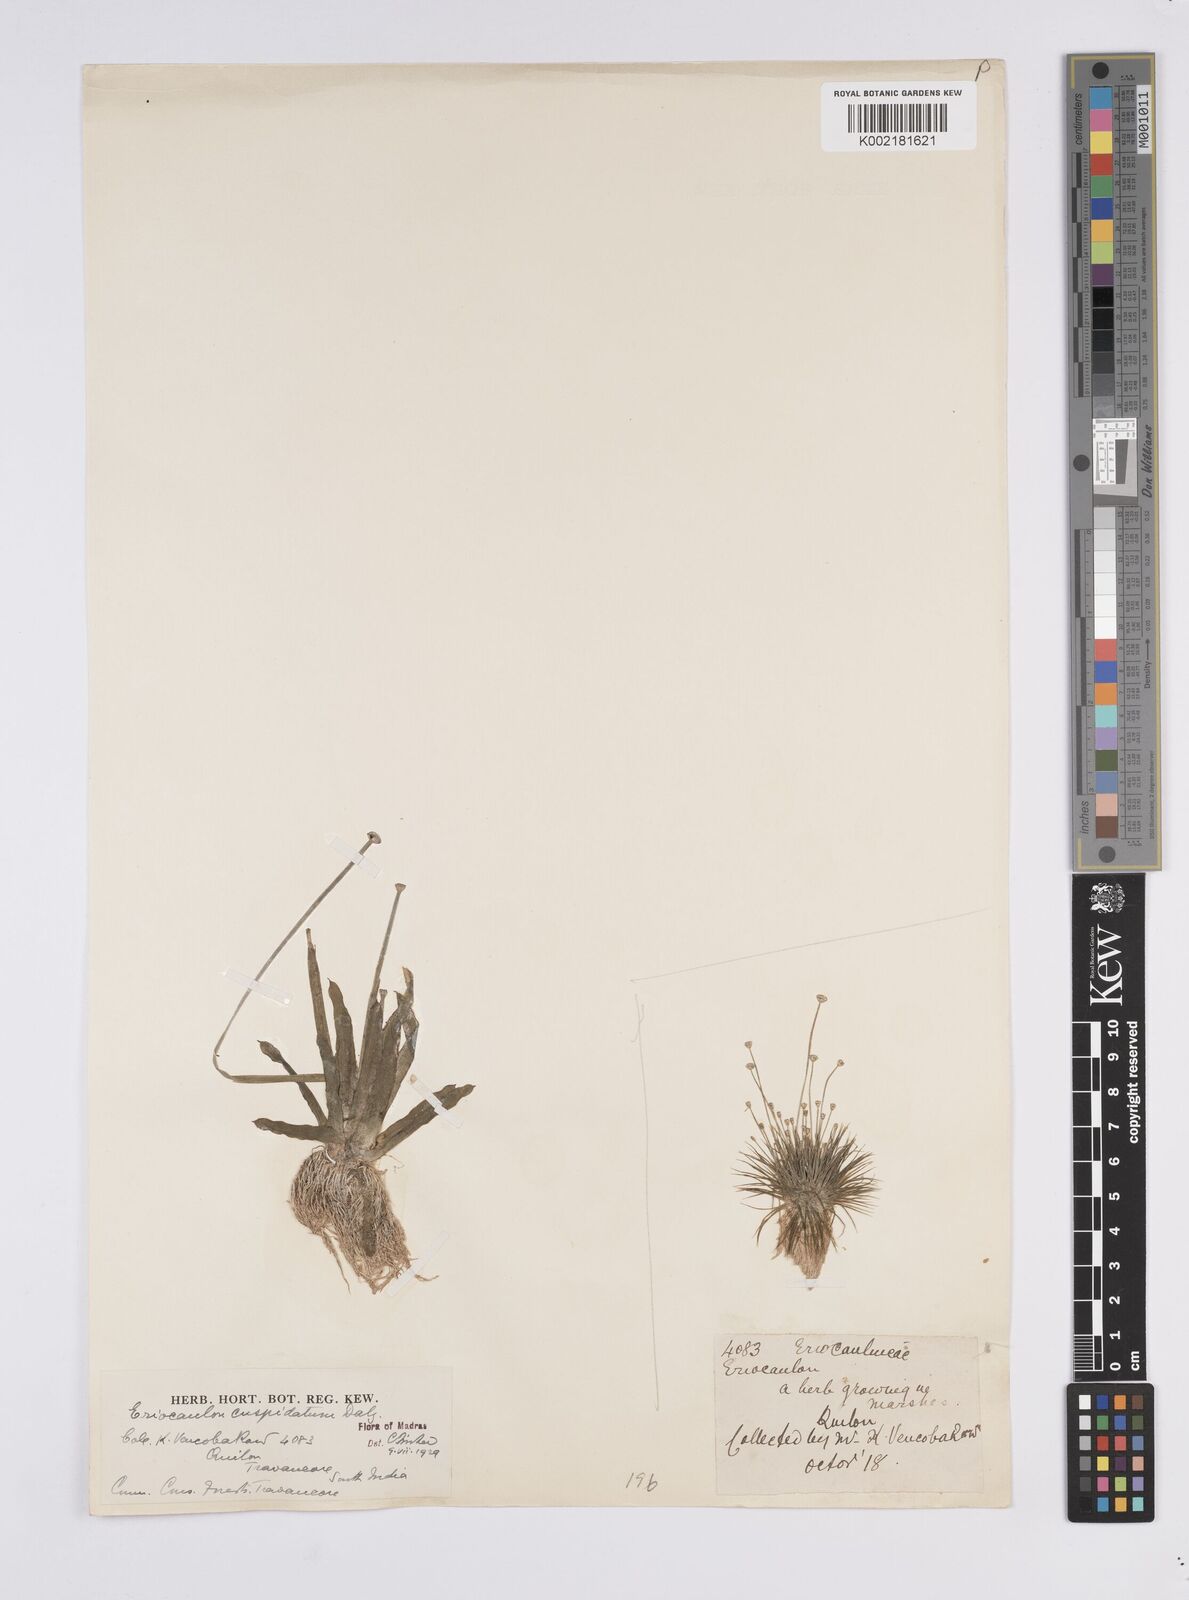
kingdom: Plantae
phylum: Tracheophyta
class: Liliopsida
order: Poales
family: Eriocaulaceae
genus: Eriocaulon
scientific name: Eriocaulon cuspidatum
